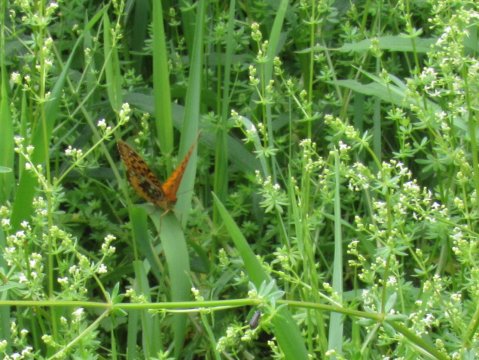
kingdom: Animalia
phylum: Arthropoda
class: Insecta
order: Lepidoptera
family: Nymphalidae
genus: Speyeria
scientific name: Speyeria cybele
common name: Great Spangled Fritillary
